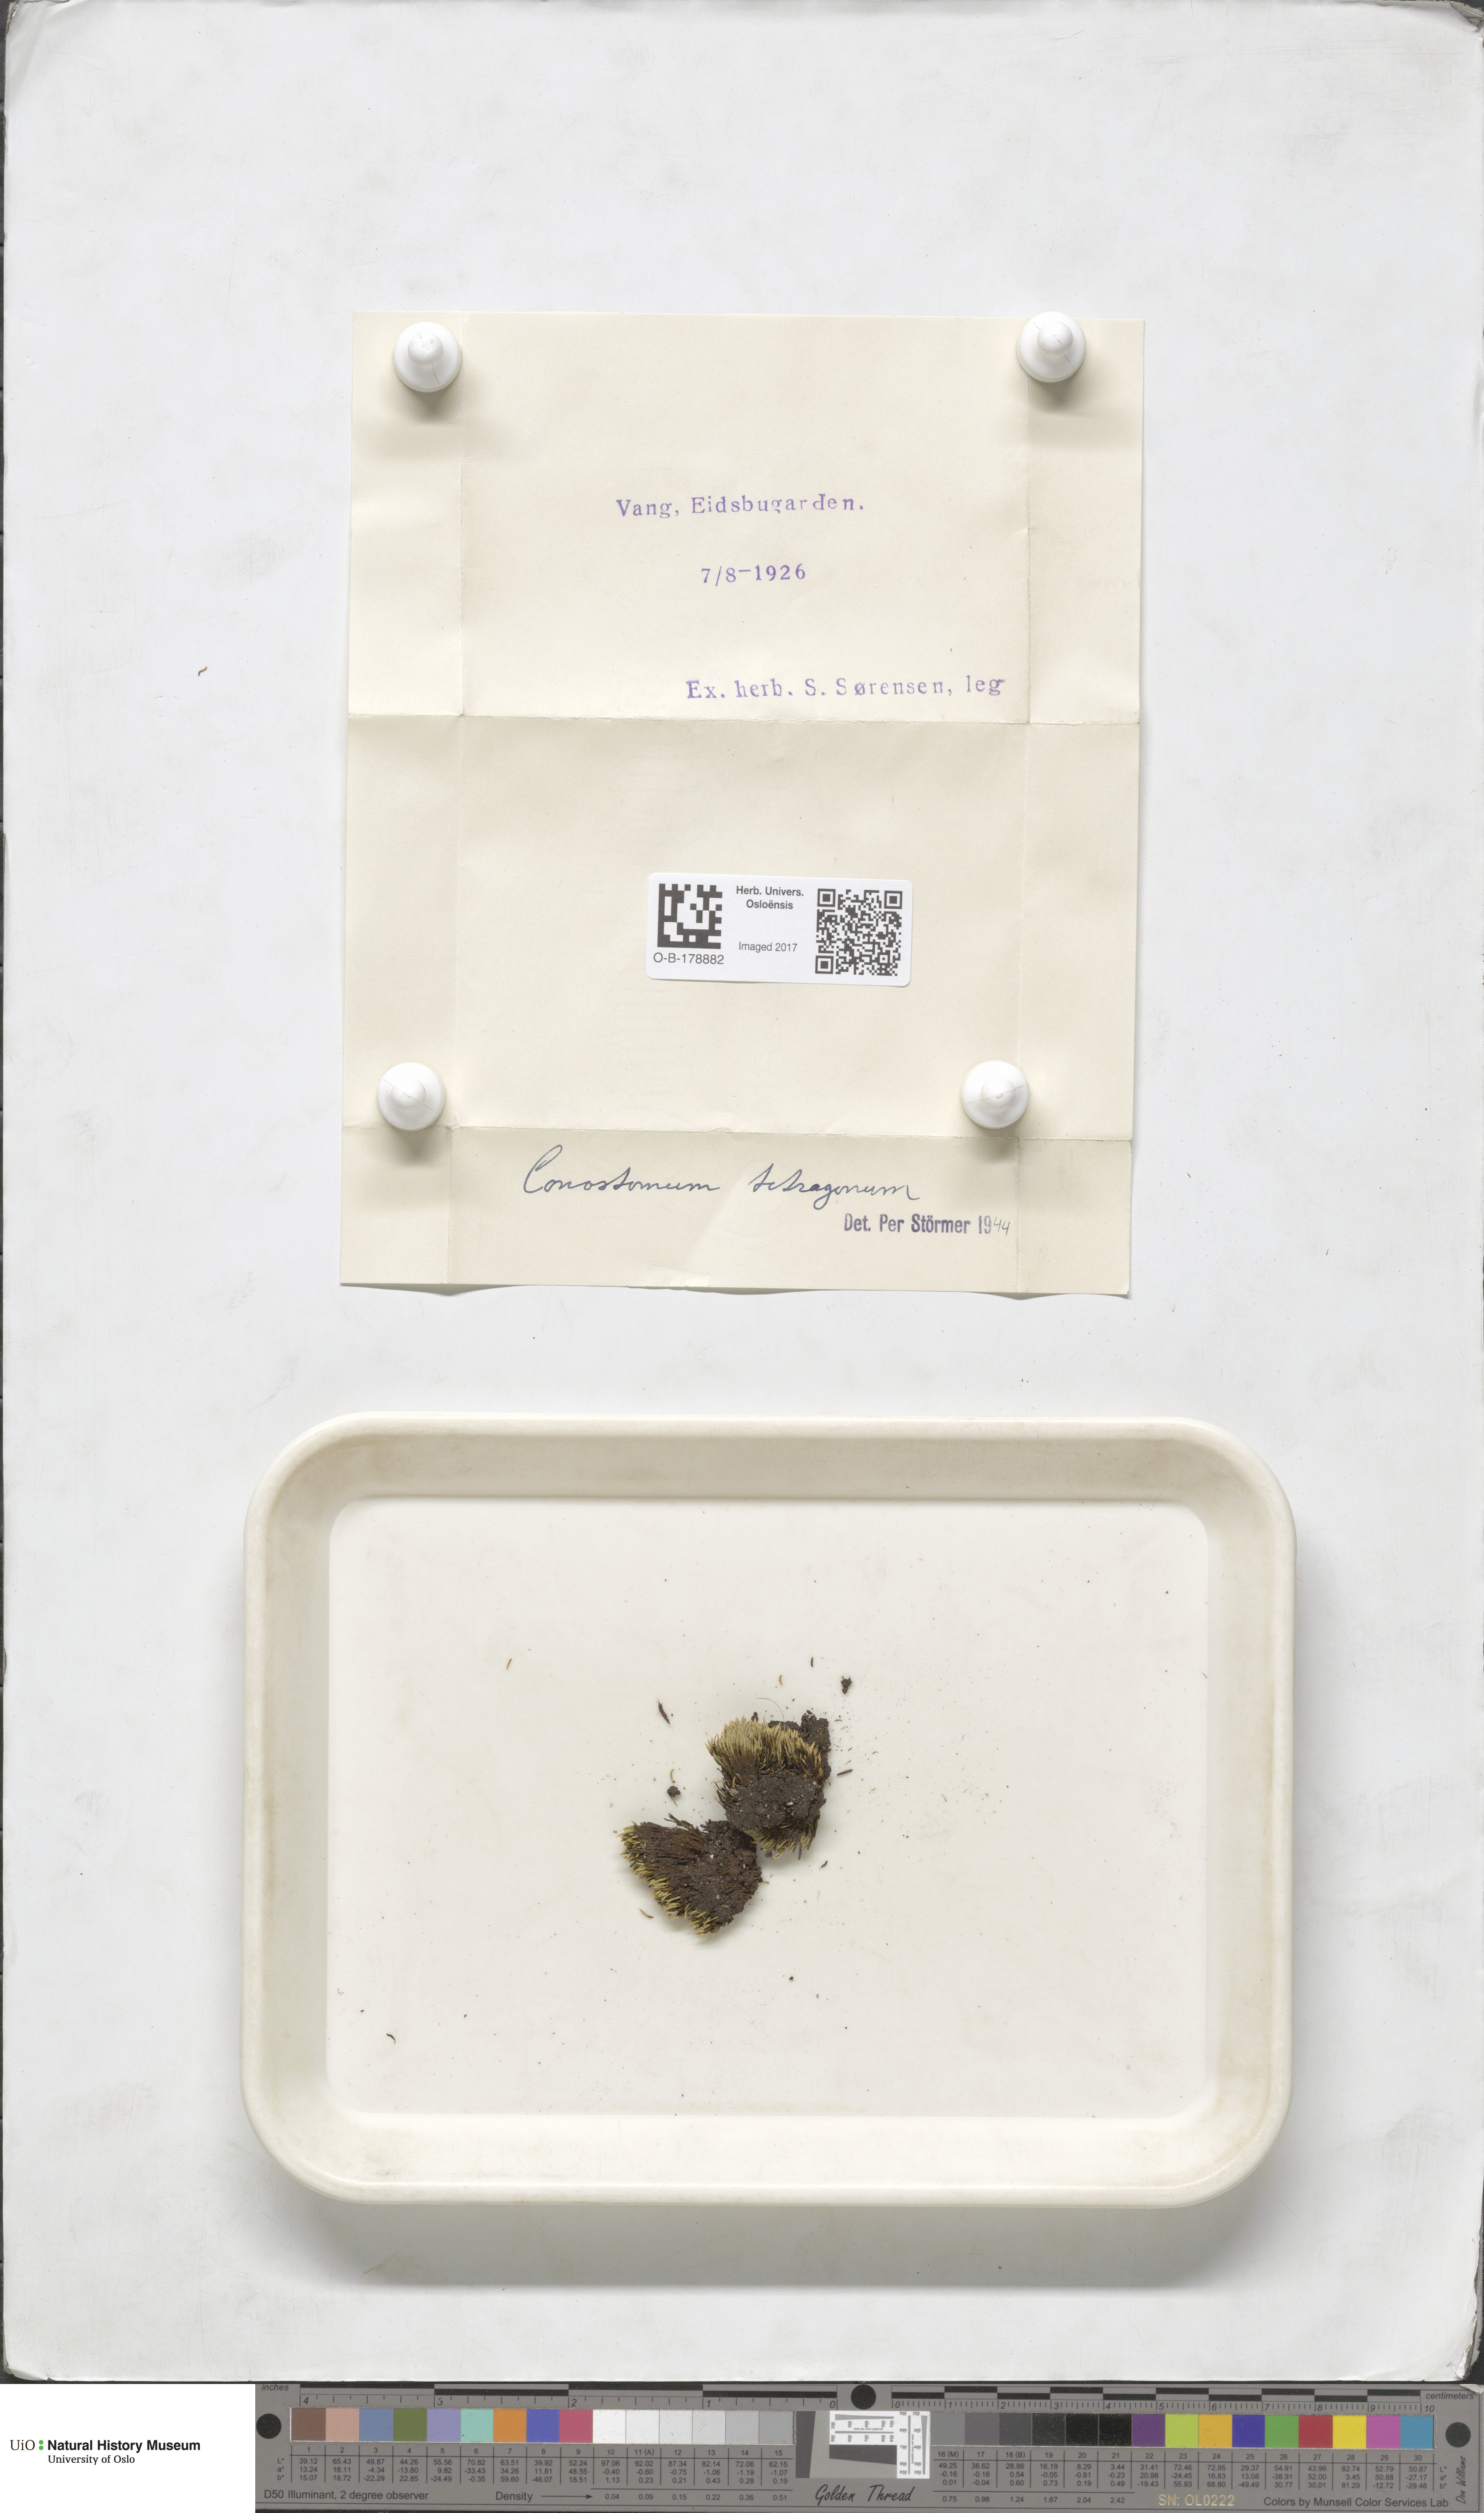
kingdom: Plantae
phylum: Bryophyta
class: Bryopsida
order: Bartramiales
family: Bartramiaceae
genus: Conostomum
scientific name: Conostomum tetragonum
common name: Helmet moss
